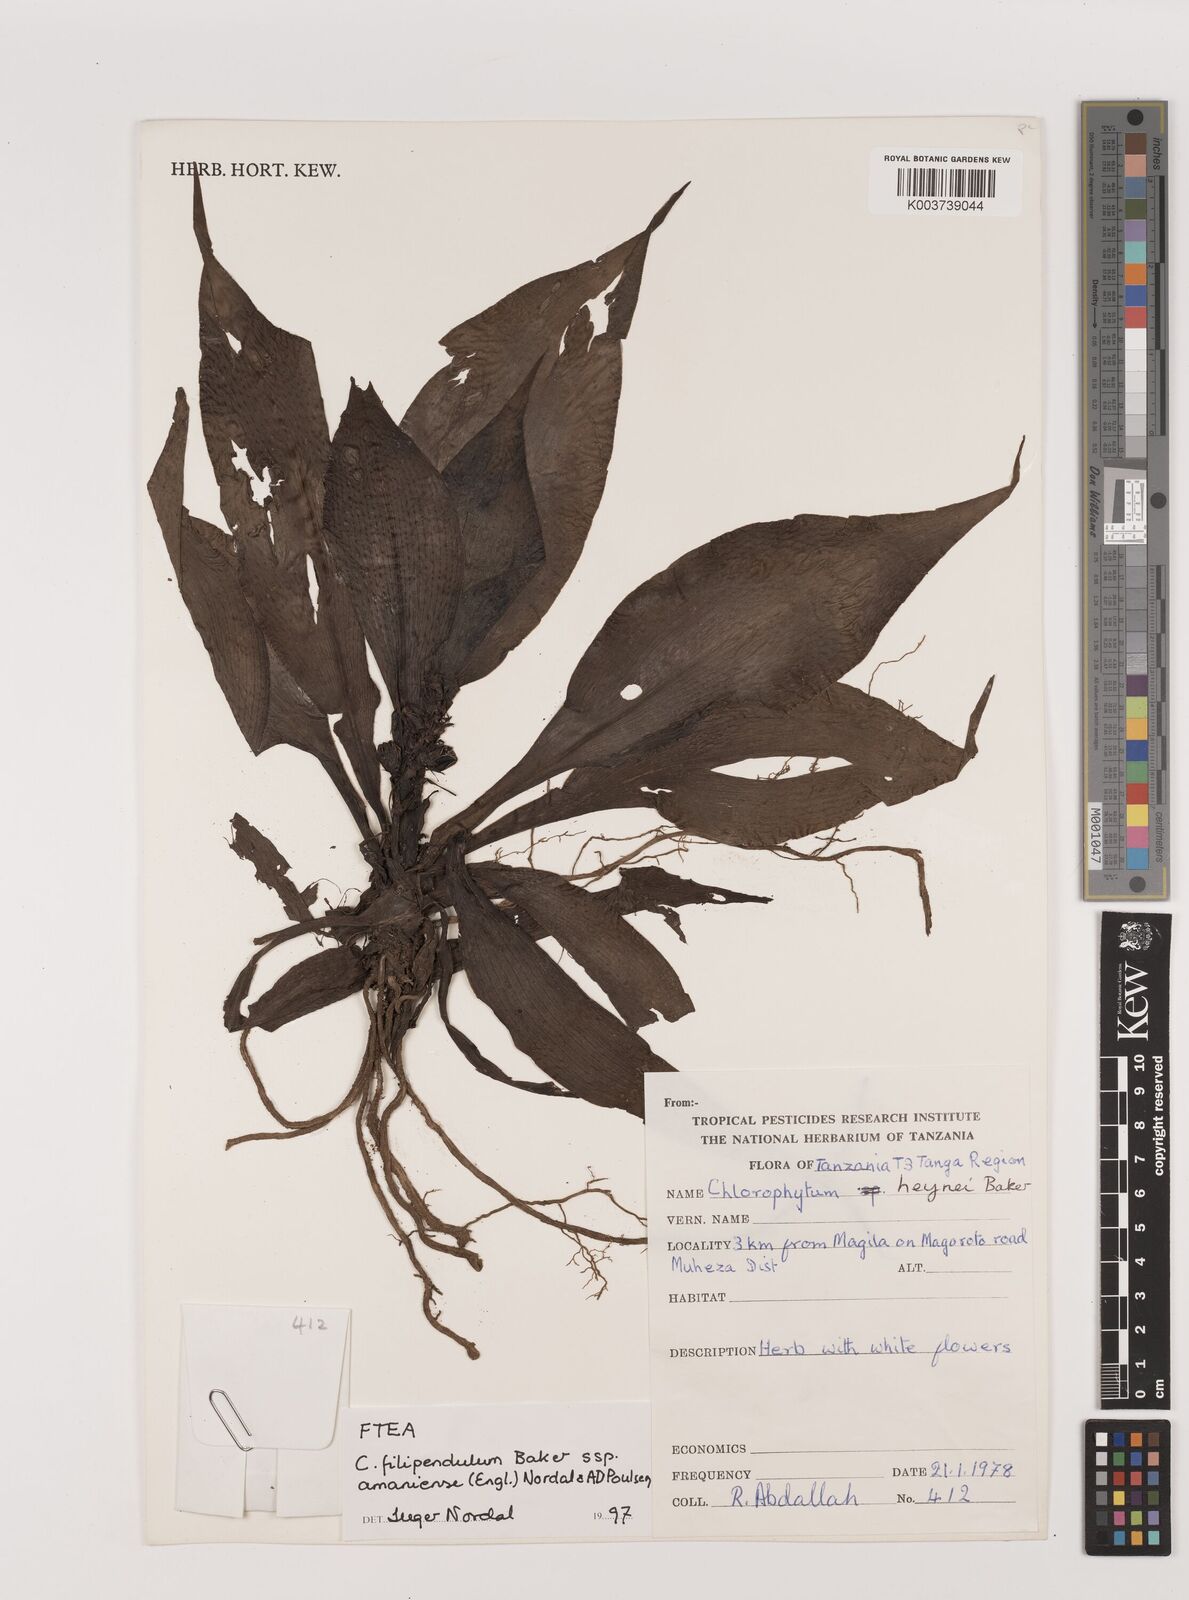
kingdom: Plantae
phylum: Tracheophyta
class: Liliopsida
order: Asparagales
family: Asparagaceae
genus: Chlorophytum
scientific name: Chlorophytum filipendulum
